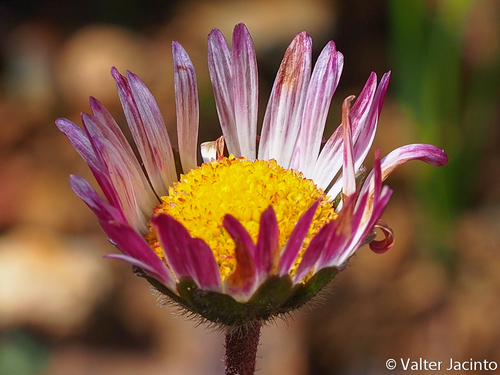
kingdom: Plantae
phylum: Tracheophyta
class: Magnoliopsida
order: Asterales
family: Asteraceae
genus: Bellis
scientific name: Bellis sylvestris
